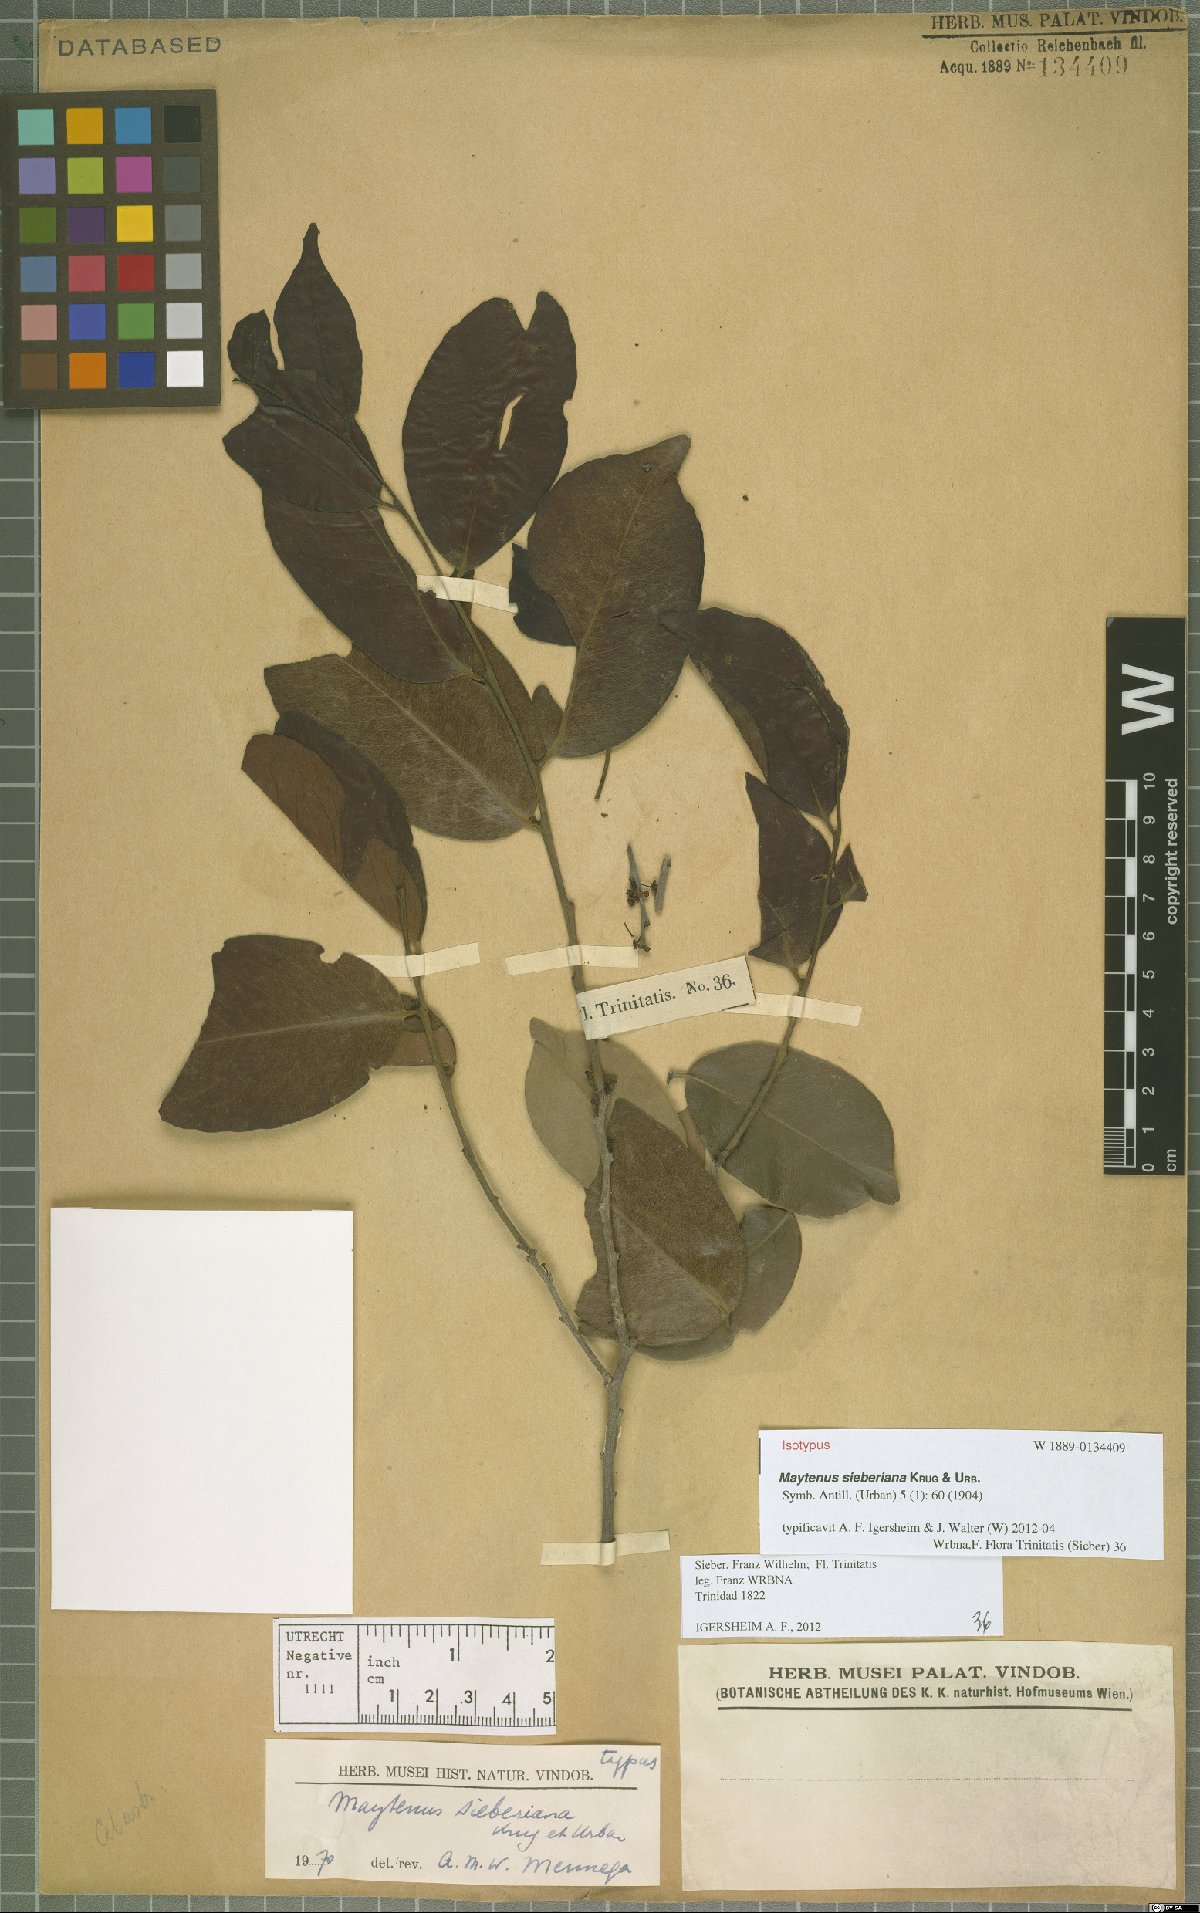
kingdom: Plantae
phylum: Tracheophyta
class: Magnoliopsida
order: Celastrales
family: Celastraceae
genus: Monteverdia
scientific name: Monteverdia sieberiana
